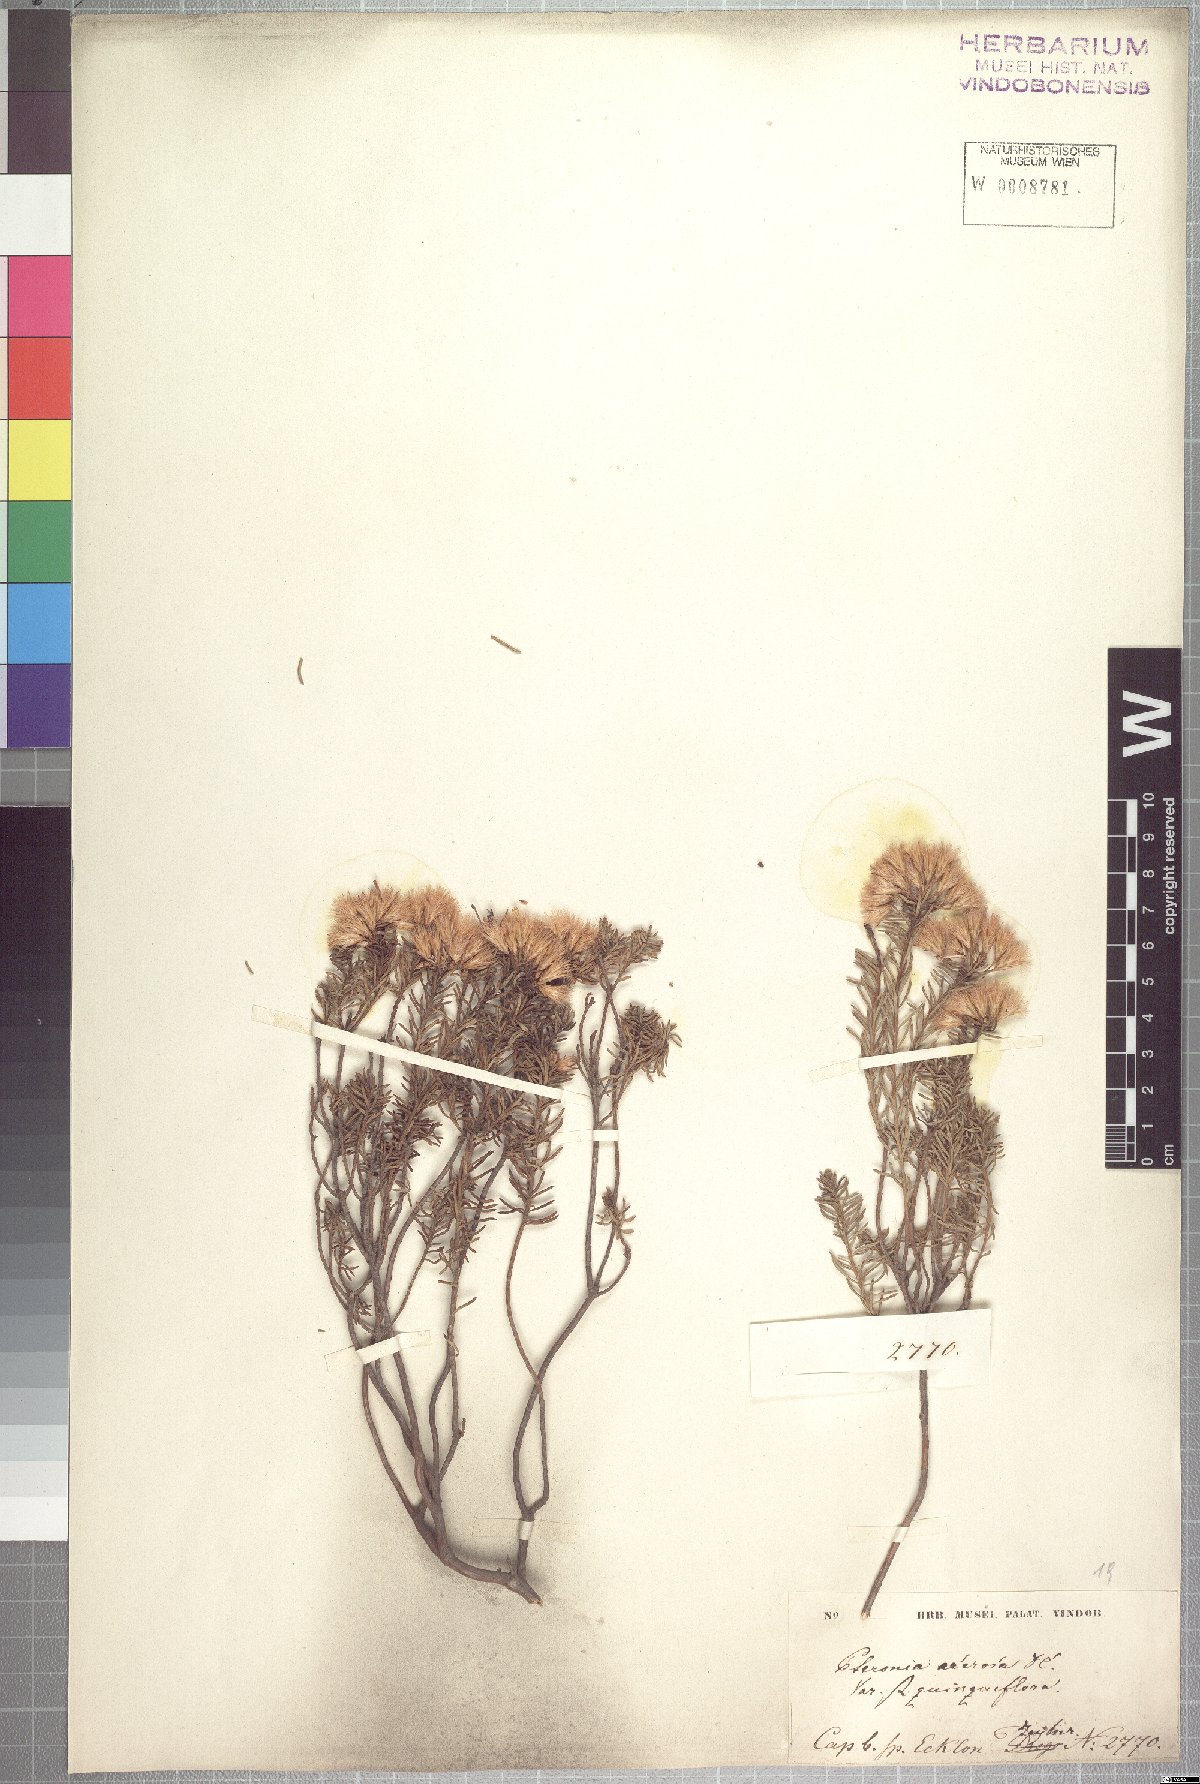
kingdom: Plantae
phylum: Tracheophyta
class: Magnoliopsida
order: Asterales
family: Asteraceae
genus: Pteronia
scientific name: Pteronia teretifolia
